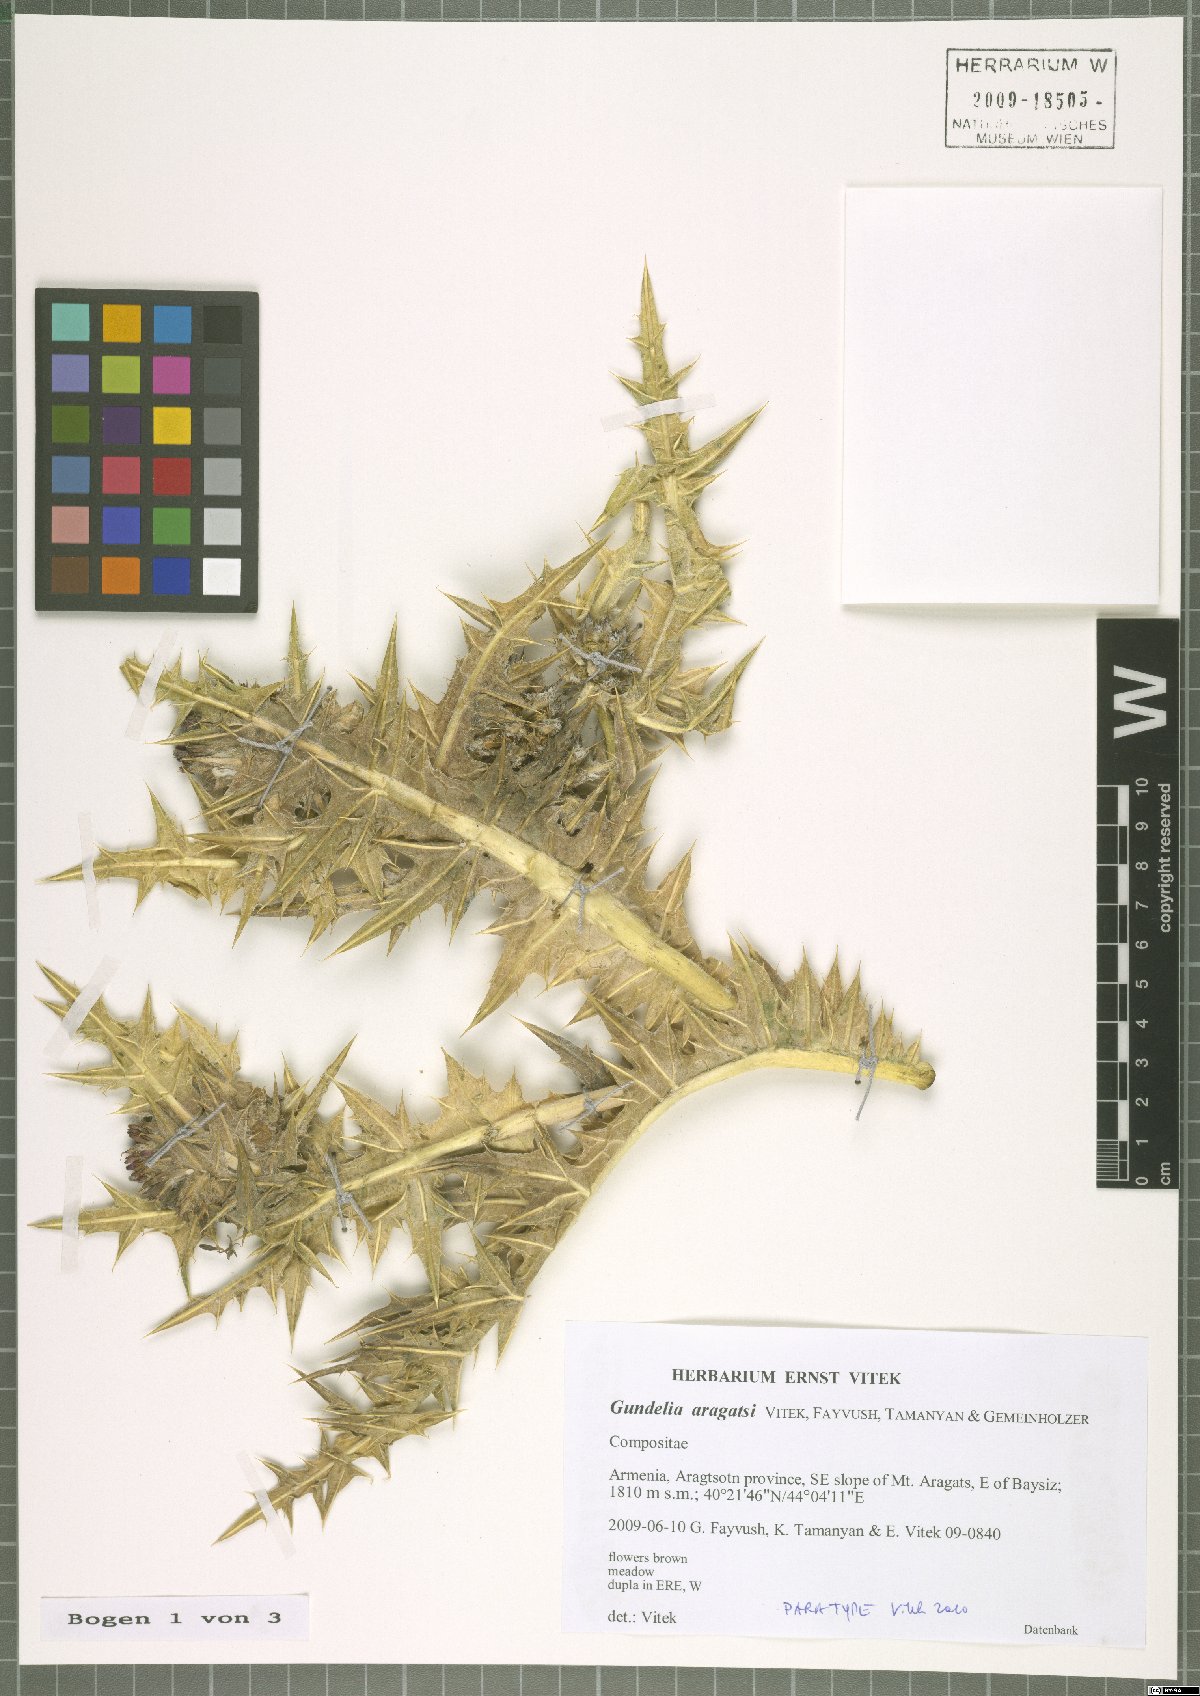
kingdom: Plantae
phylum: Tracheophyta
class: Magnoliopsida
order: Asterales
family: Asteraceae
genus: Gundelia
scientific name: Gundelia aragatsi
